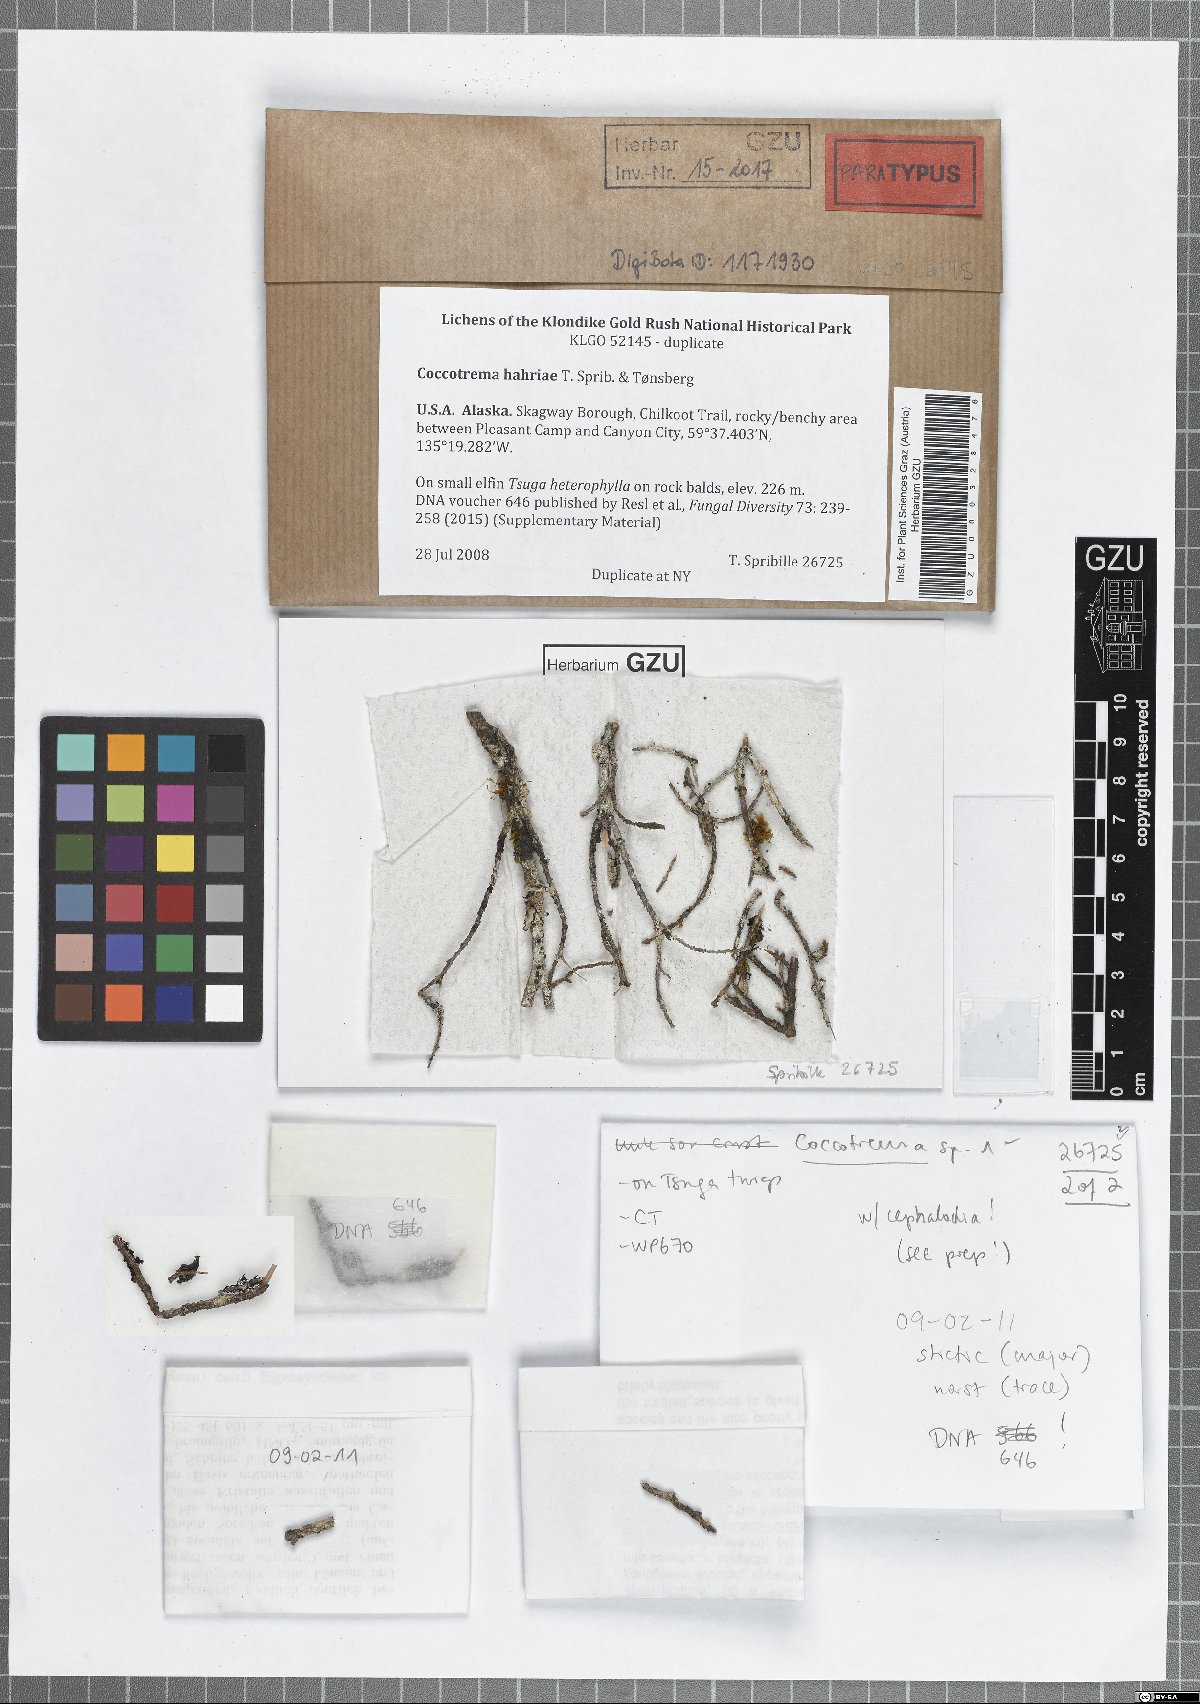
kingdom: Fungi
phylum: Ascomycota
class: Lecanoromycetes
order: Pertusariales
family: Coccotremataceae
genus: Coccotrema
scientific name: Coccotrema hahriae
